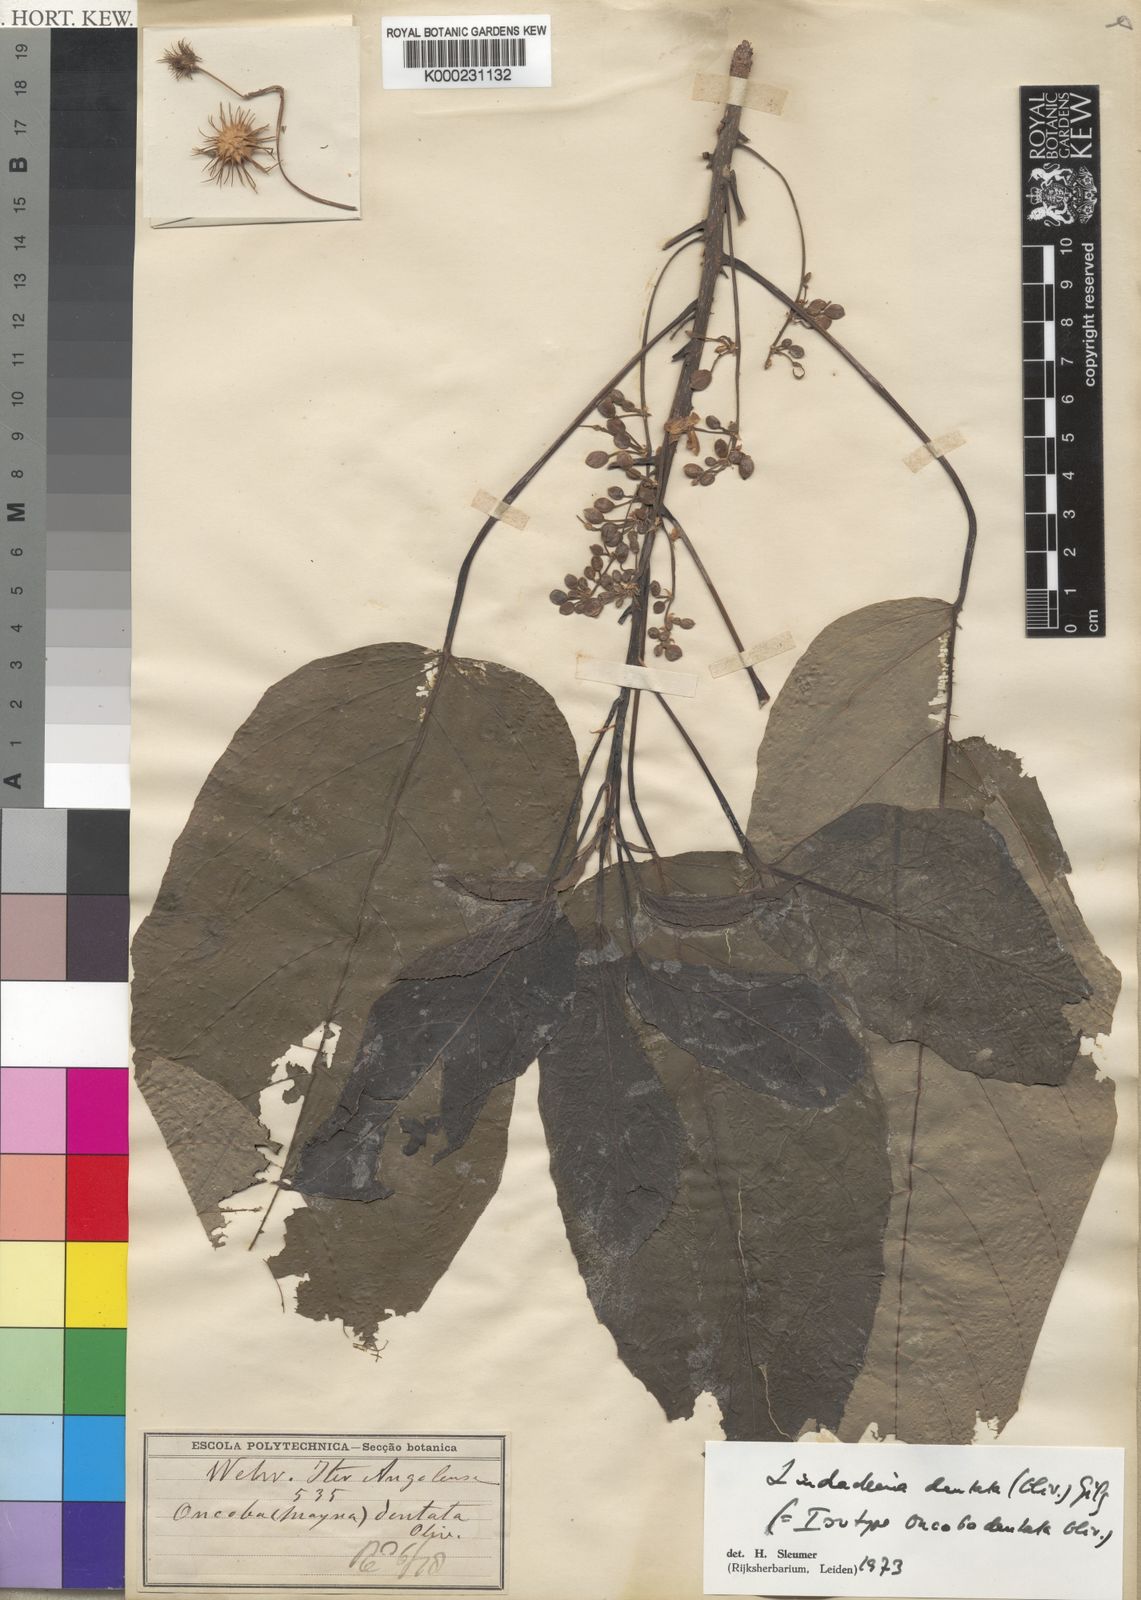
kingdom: Plantae
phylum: Tracheophyta
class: Magnoliopsida
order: Malpighiales
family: Achariaceae
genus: Lindackeria
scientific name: Lindackeria dentata
